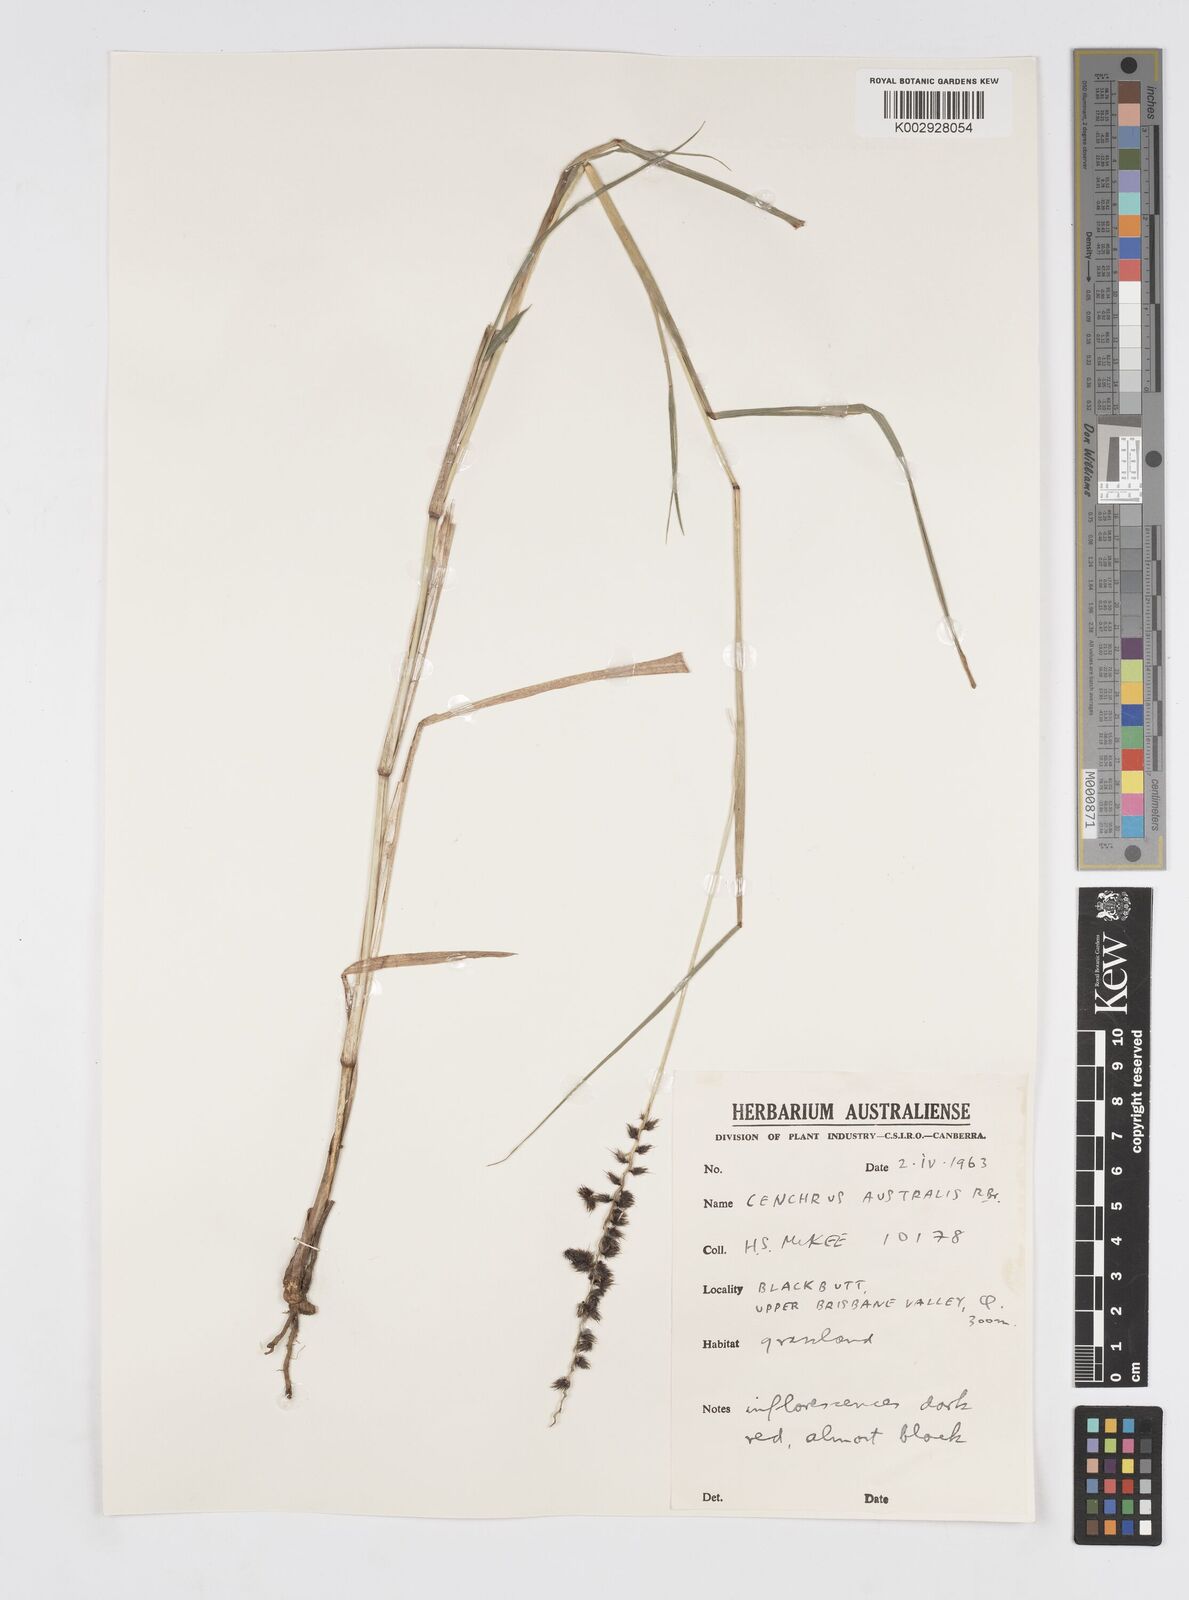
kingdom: Plantae
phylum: Tracheophyta
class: Liliopsida
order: Poales
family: Poaceae
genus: Cenchrus
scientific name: Cenchrus caliculatus
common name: Large bur grass
